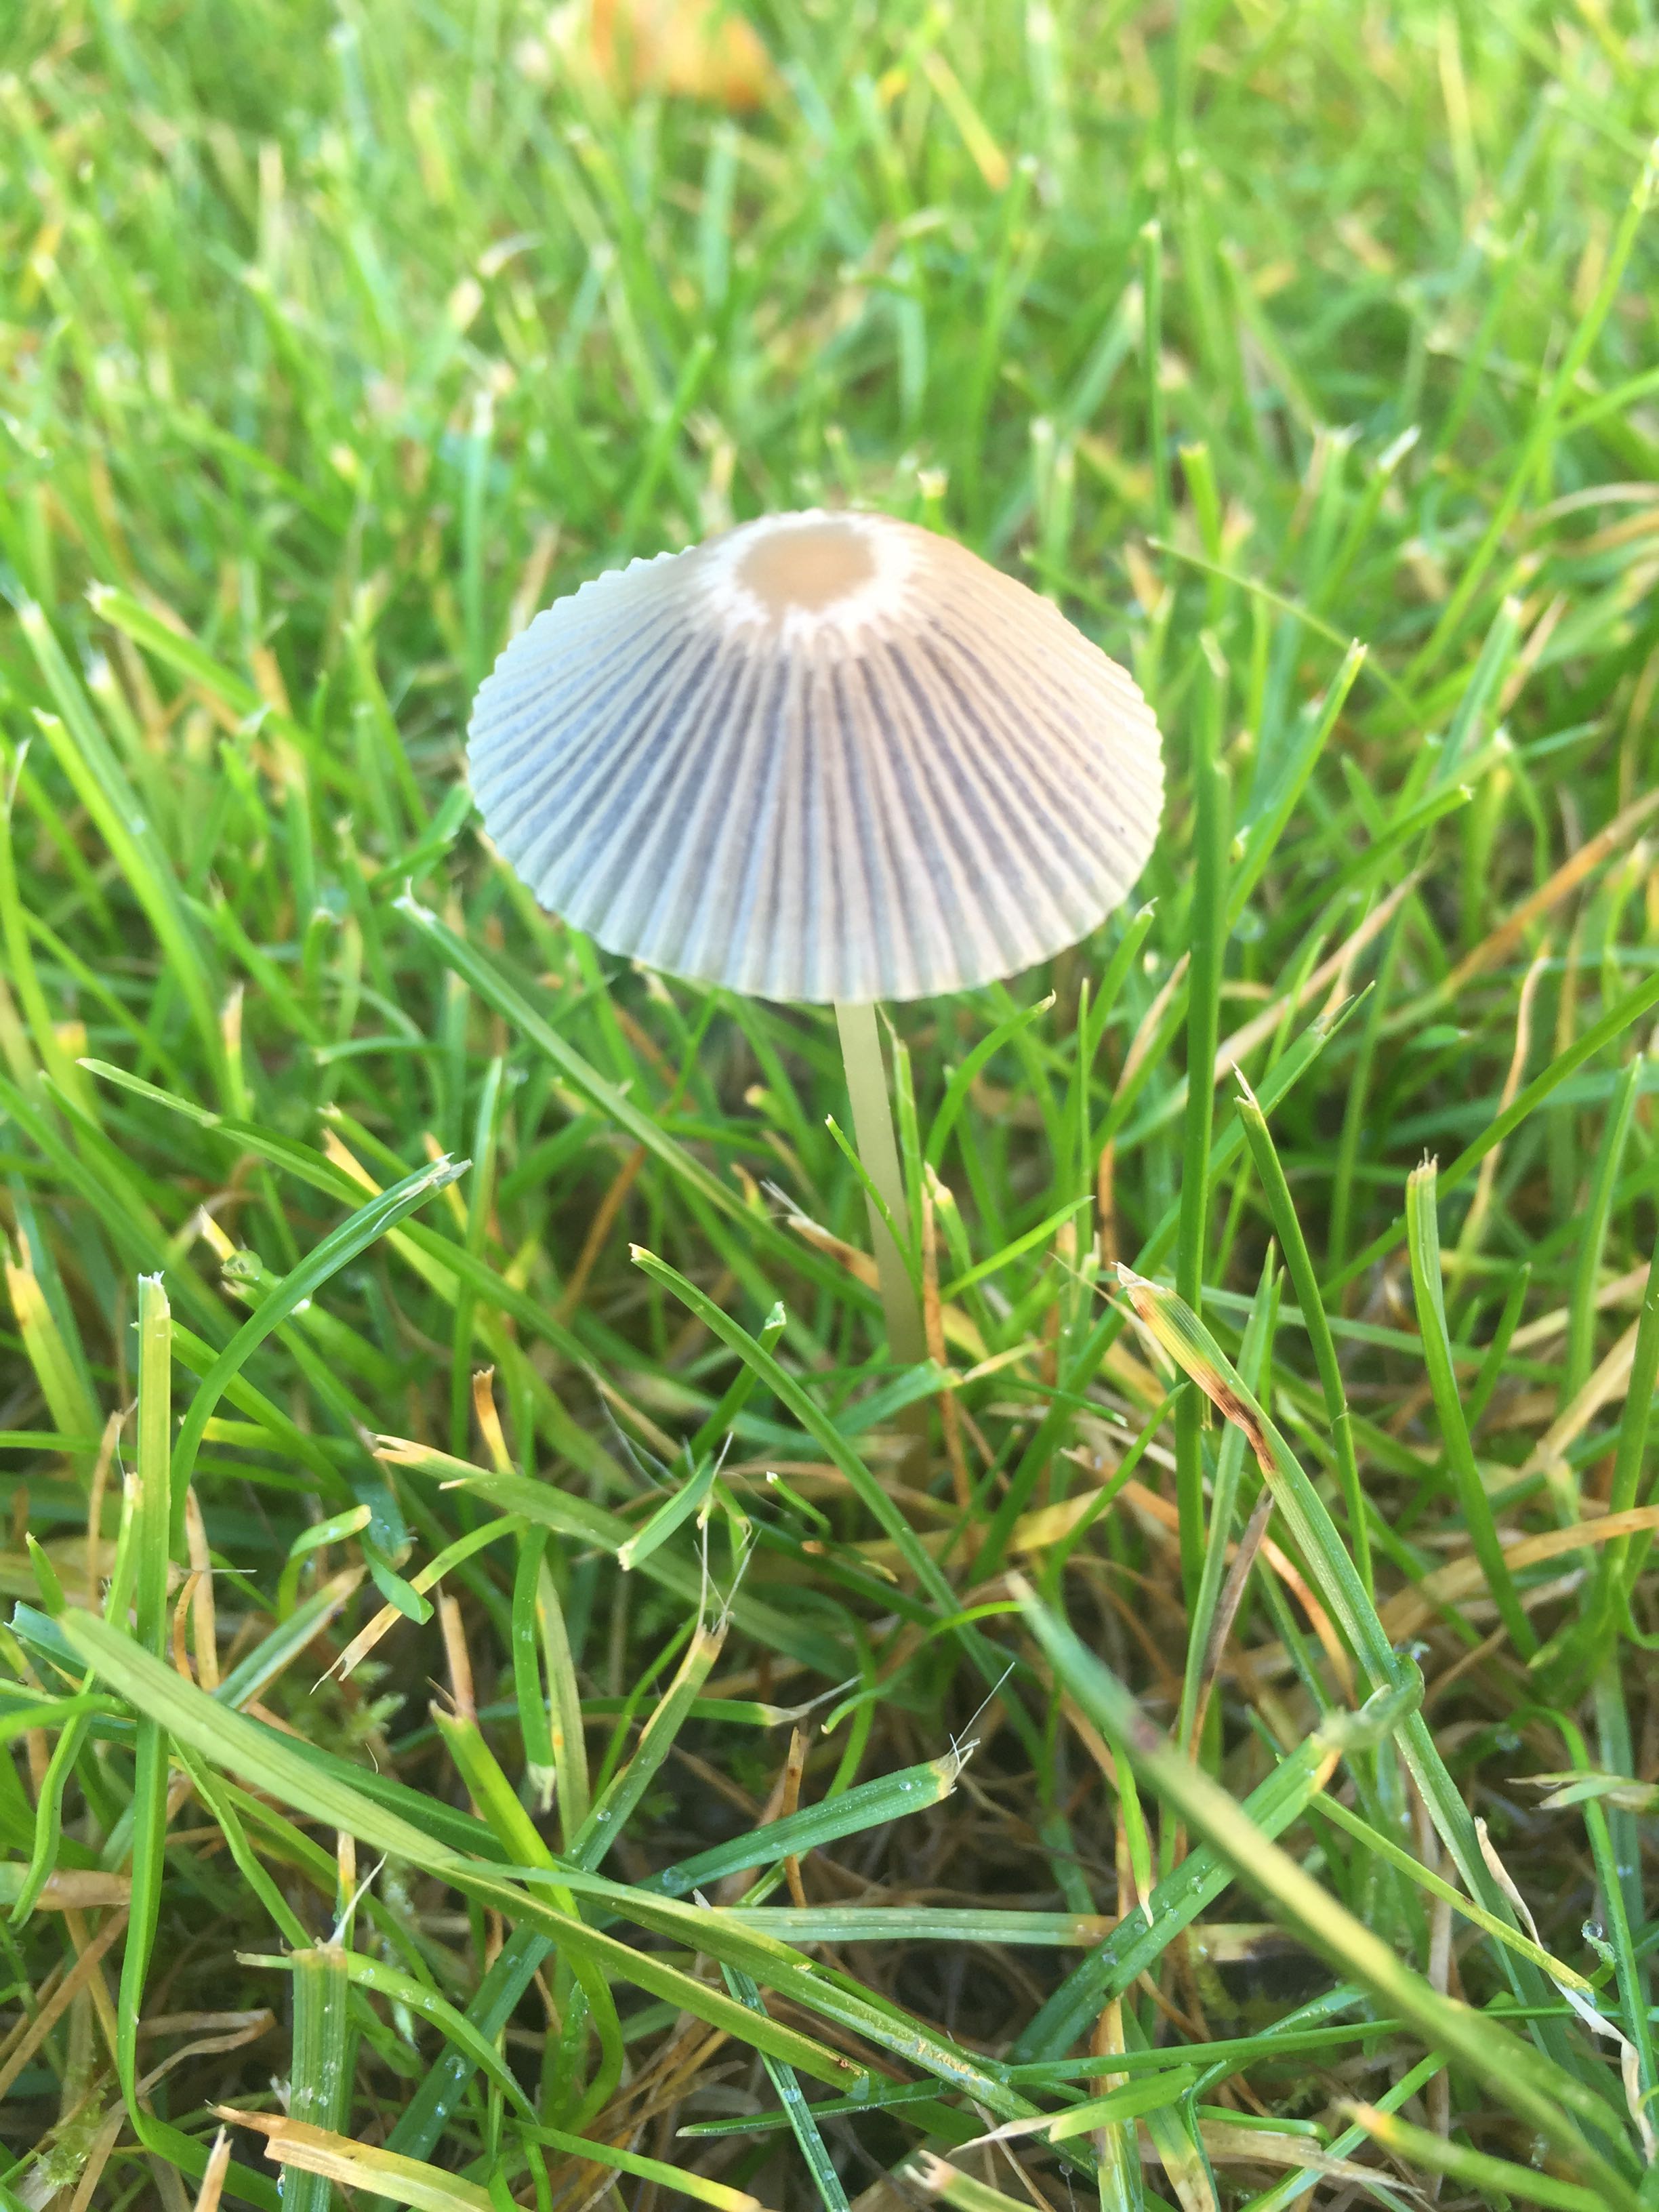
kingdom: Fungi
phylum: Basidiomycota
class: Agaricomycetes
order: Agaricales
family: Psathyrellaceae
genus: Parasola
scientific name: Parasola
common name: hjulhat
